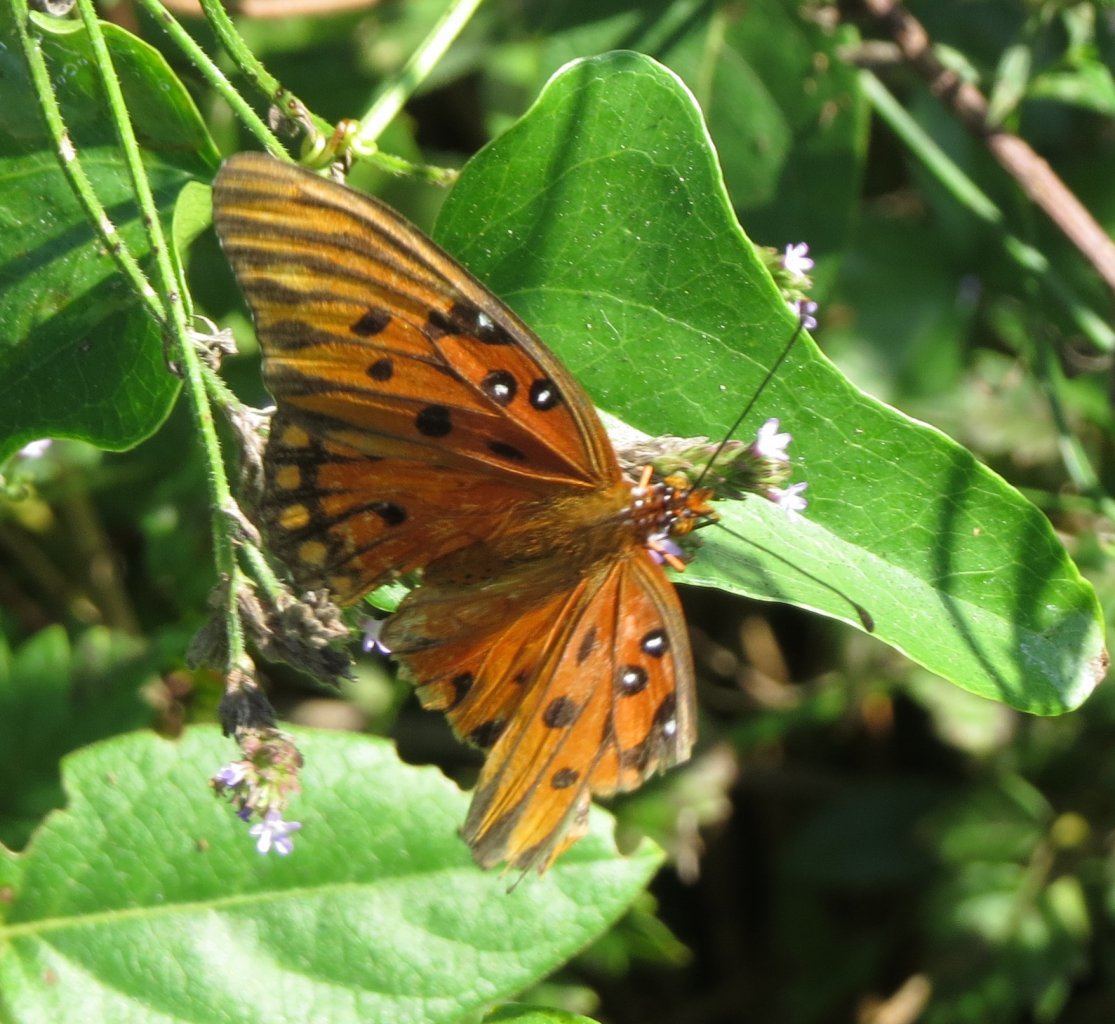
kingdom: Animalia
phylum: Arthropoda
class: Insecta
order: Lepidoptera
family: Nymphalidae
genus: Dione
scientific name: Dione vanillae
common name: Gulf Fritillary
